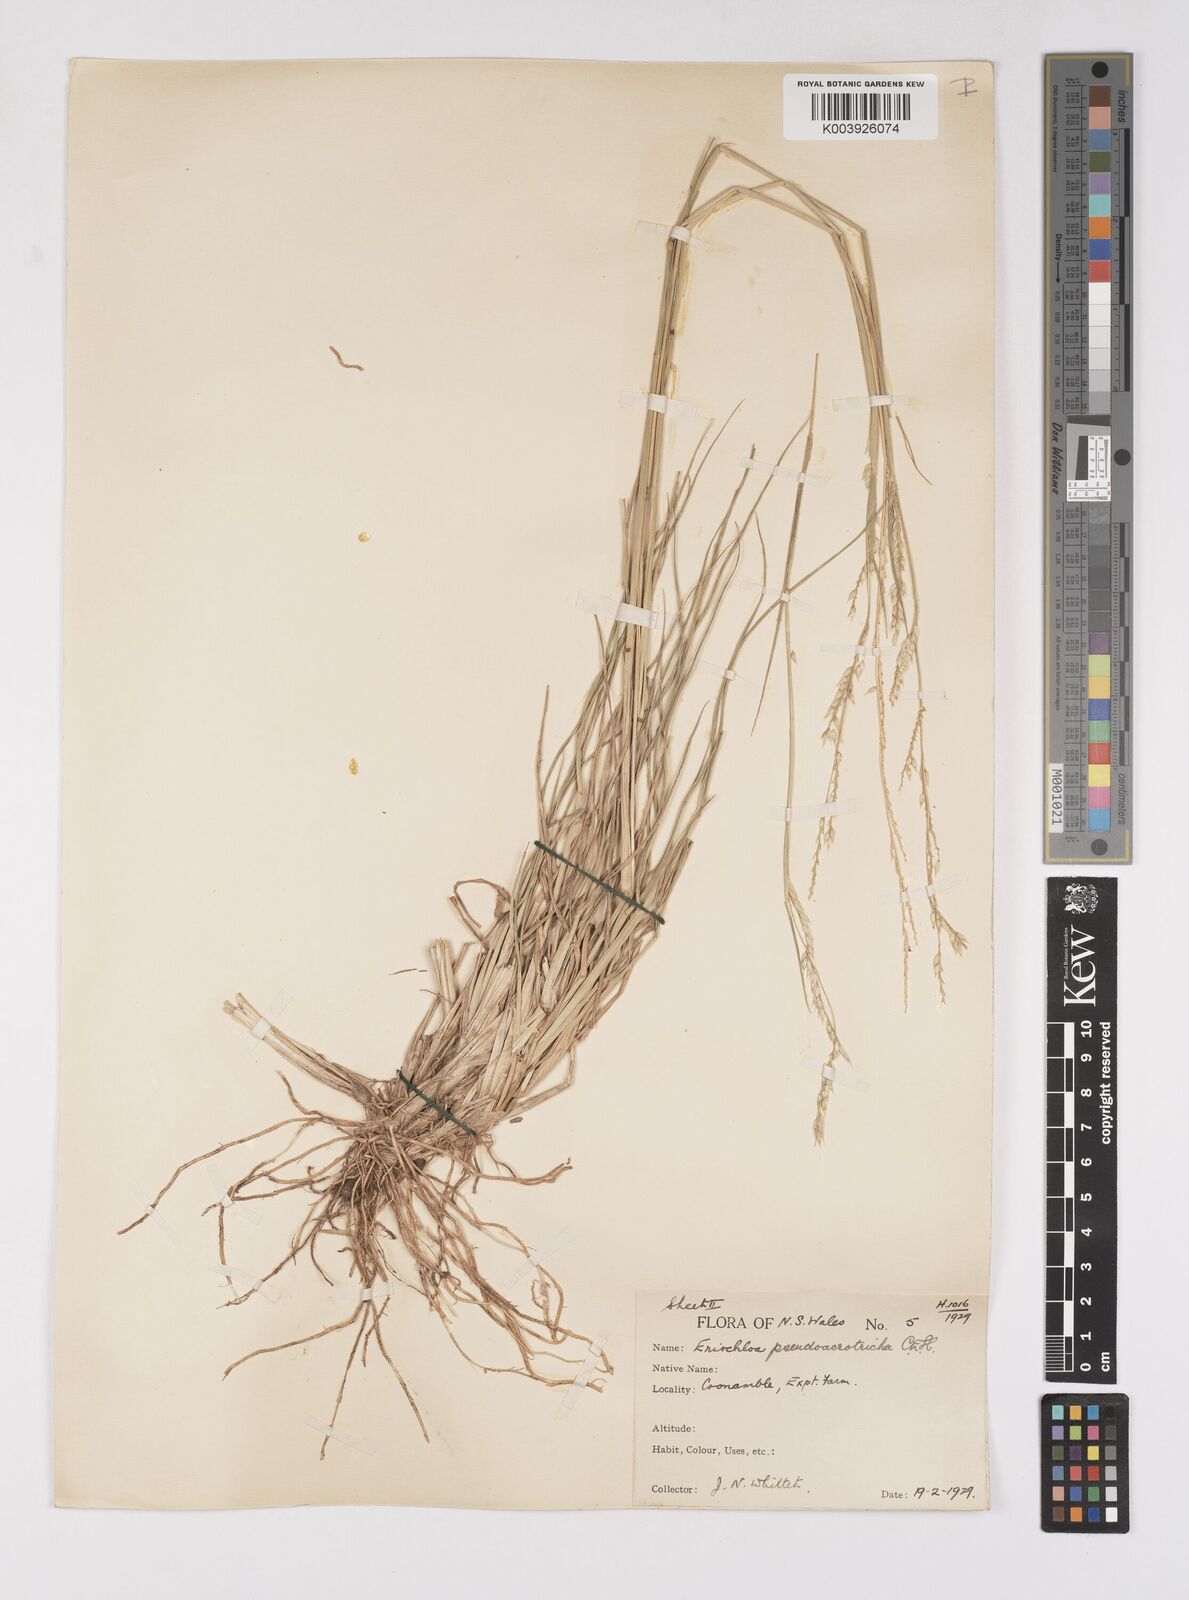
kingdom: Plantae
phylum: Tracheophyta
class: Liliopsida
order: Poales
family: Poaceae
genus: Eriochloa
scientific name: Eriochloa pseudoacrotricha
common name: Perennial cup-grass
